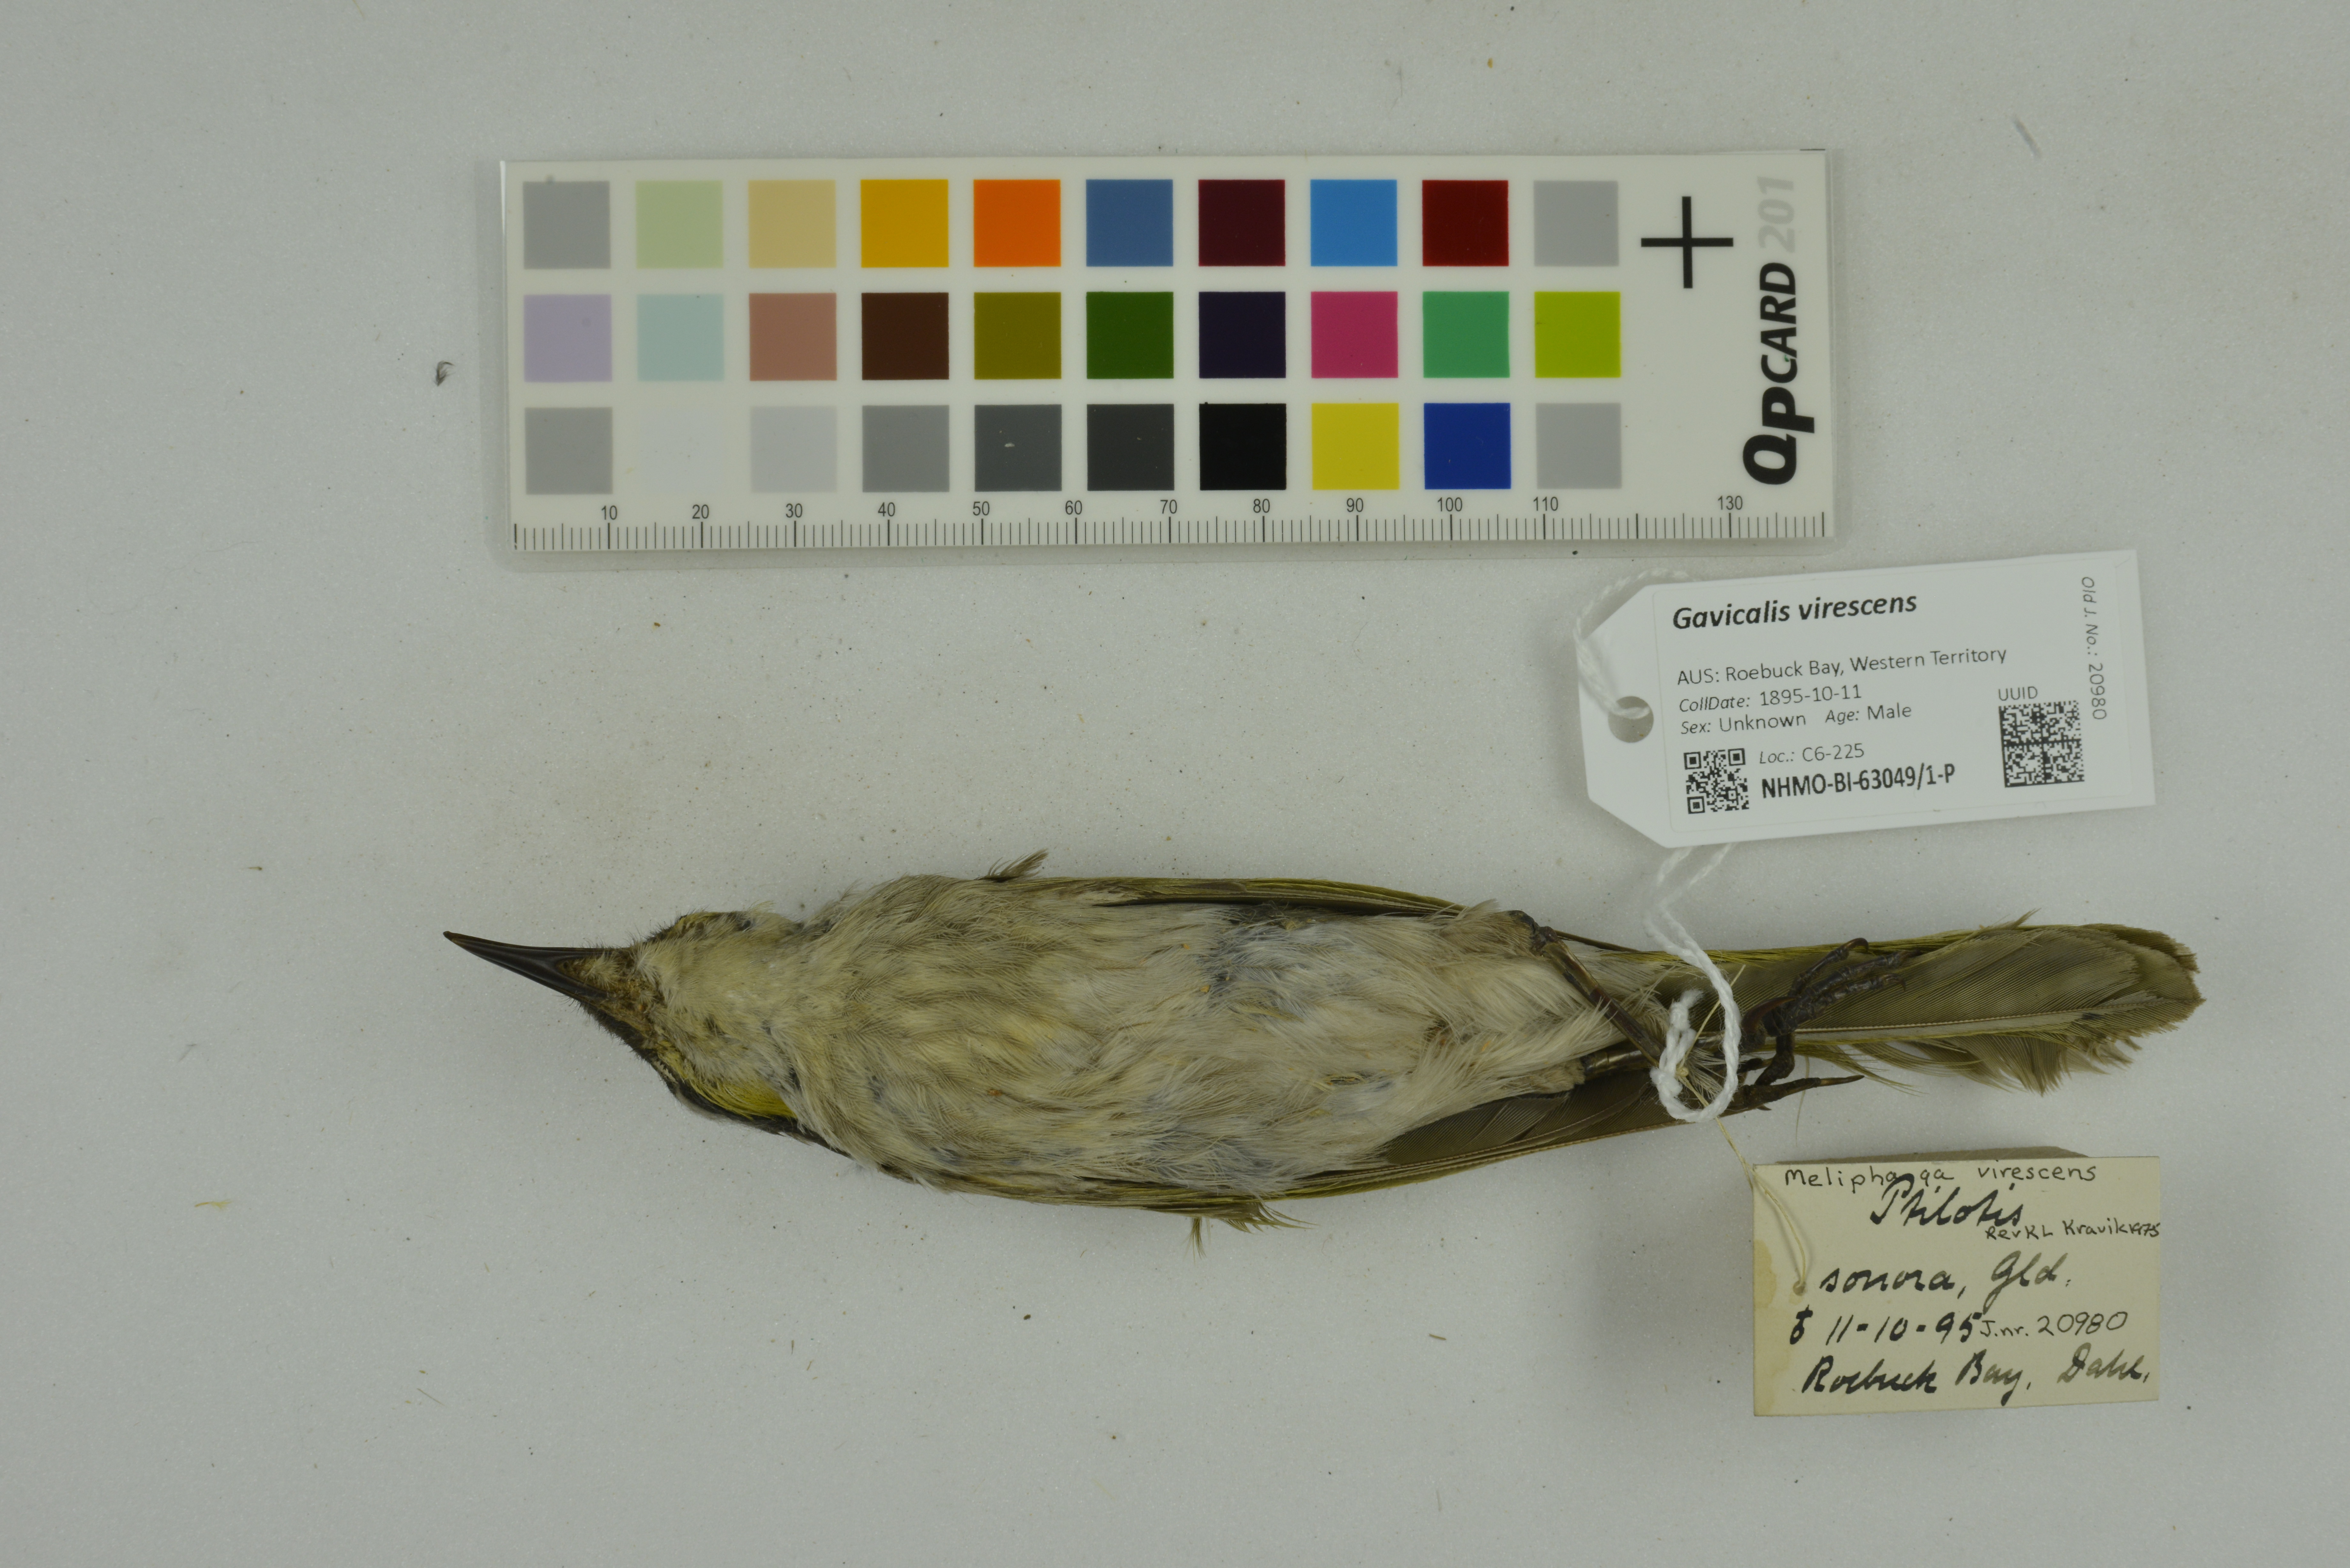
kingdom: Animalia
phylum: Chordata
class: Aves
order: Passeriformes
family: Meliphagidae
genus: Gavicalis
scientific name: Gavicalis virescens
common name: Singing honeyeater
